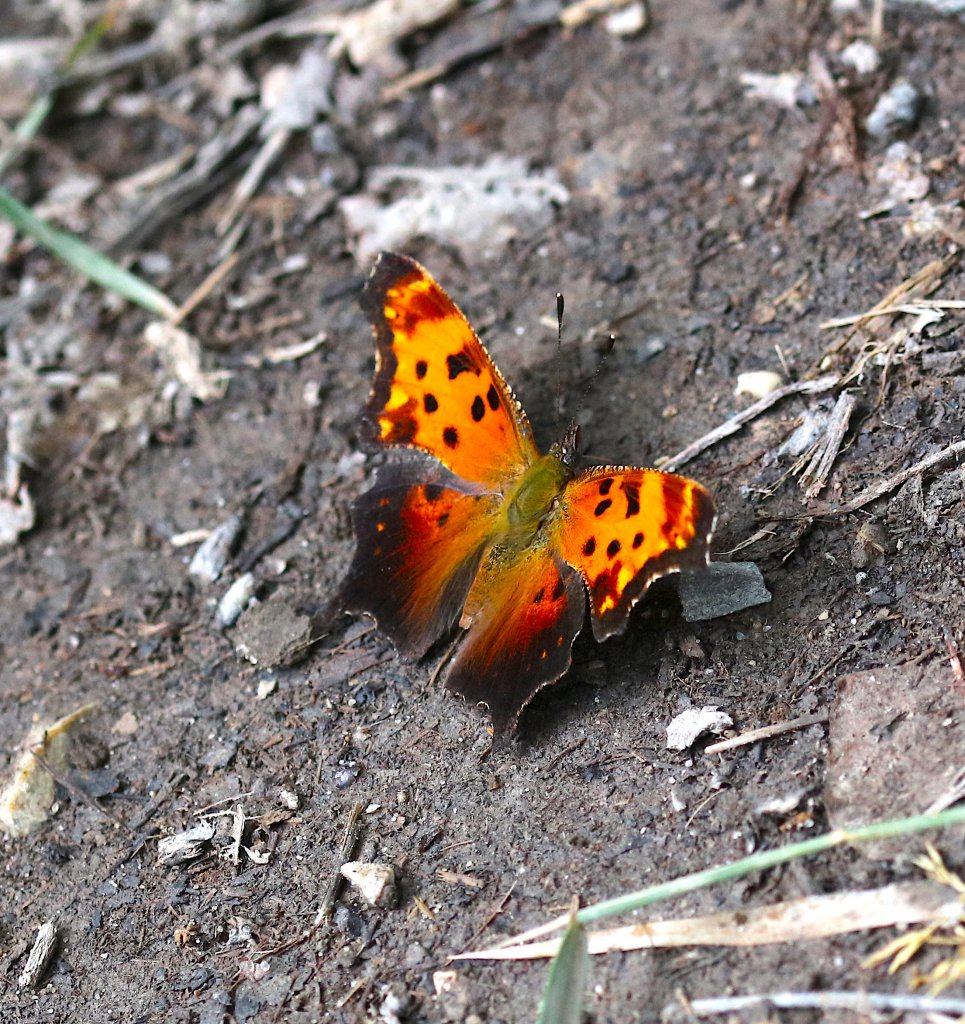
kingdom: Animalia
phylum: Arthropoda
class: Insecta
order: Lepidoptera
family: Nymphalidae
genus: Polygonia
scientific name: Polygonia progne
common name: Gray Comma
